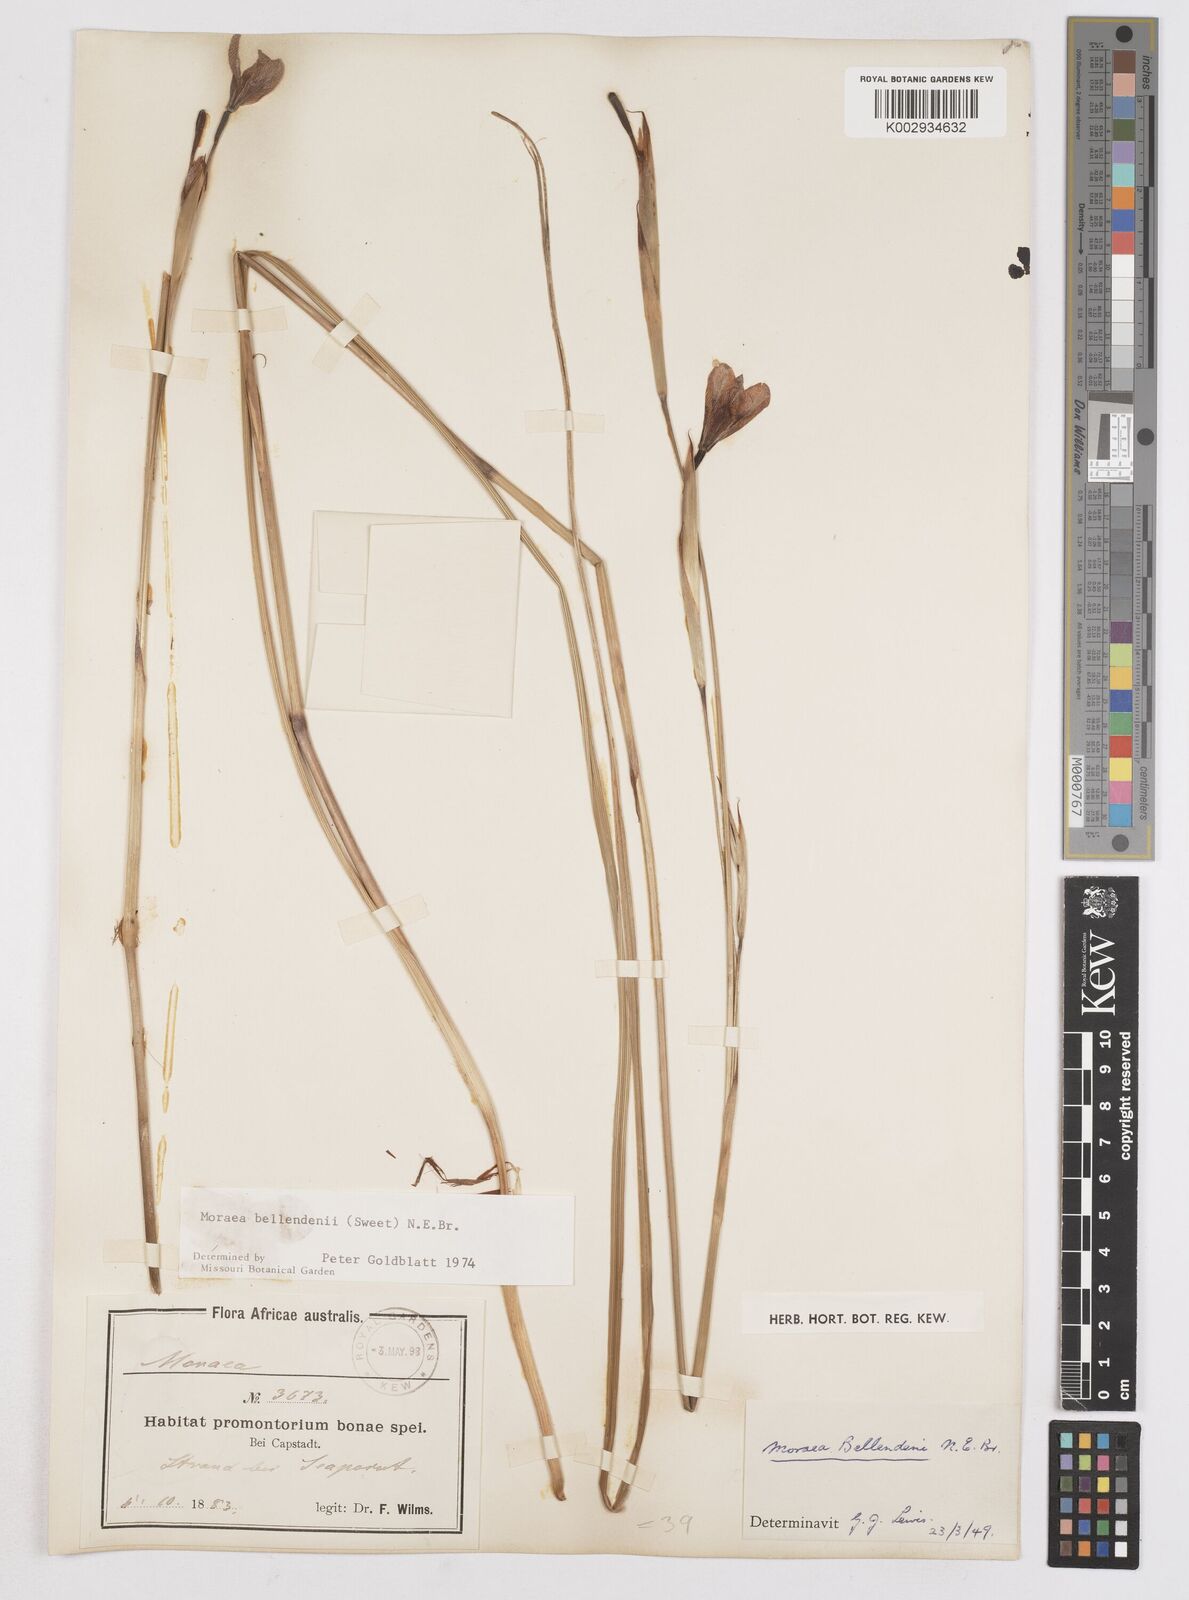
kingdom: Plantae
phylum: Tracheophyta
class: Liliopsida
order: Asparagales
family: Iridaceae
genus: Moraea
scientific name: Moraea bellendenii
